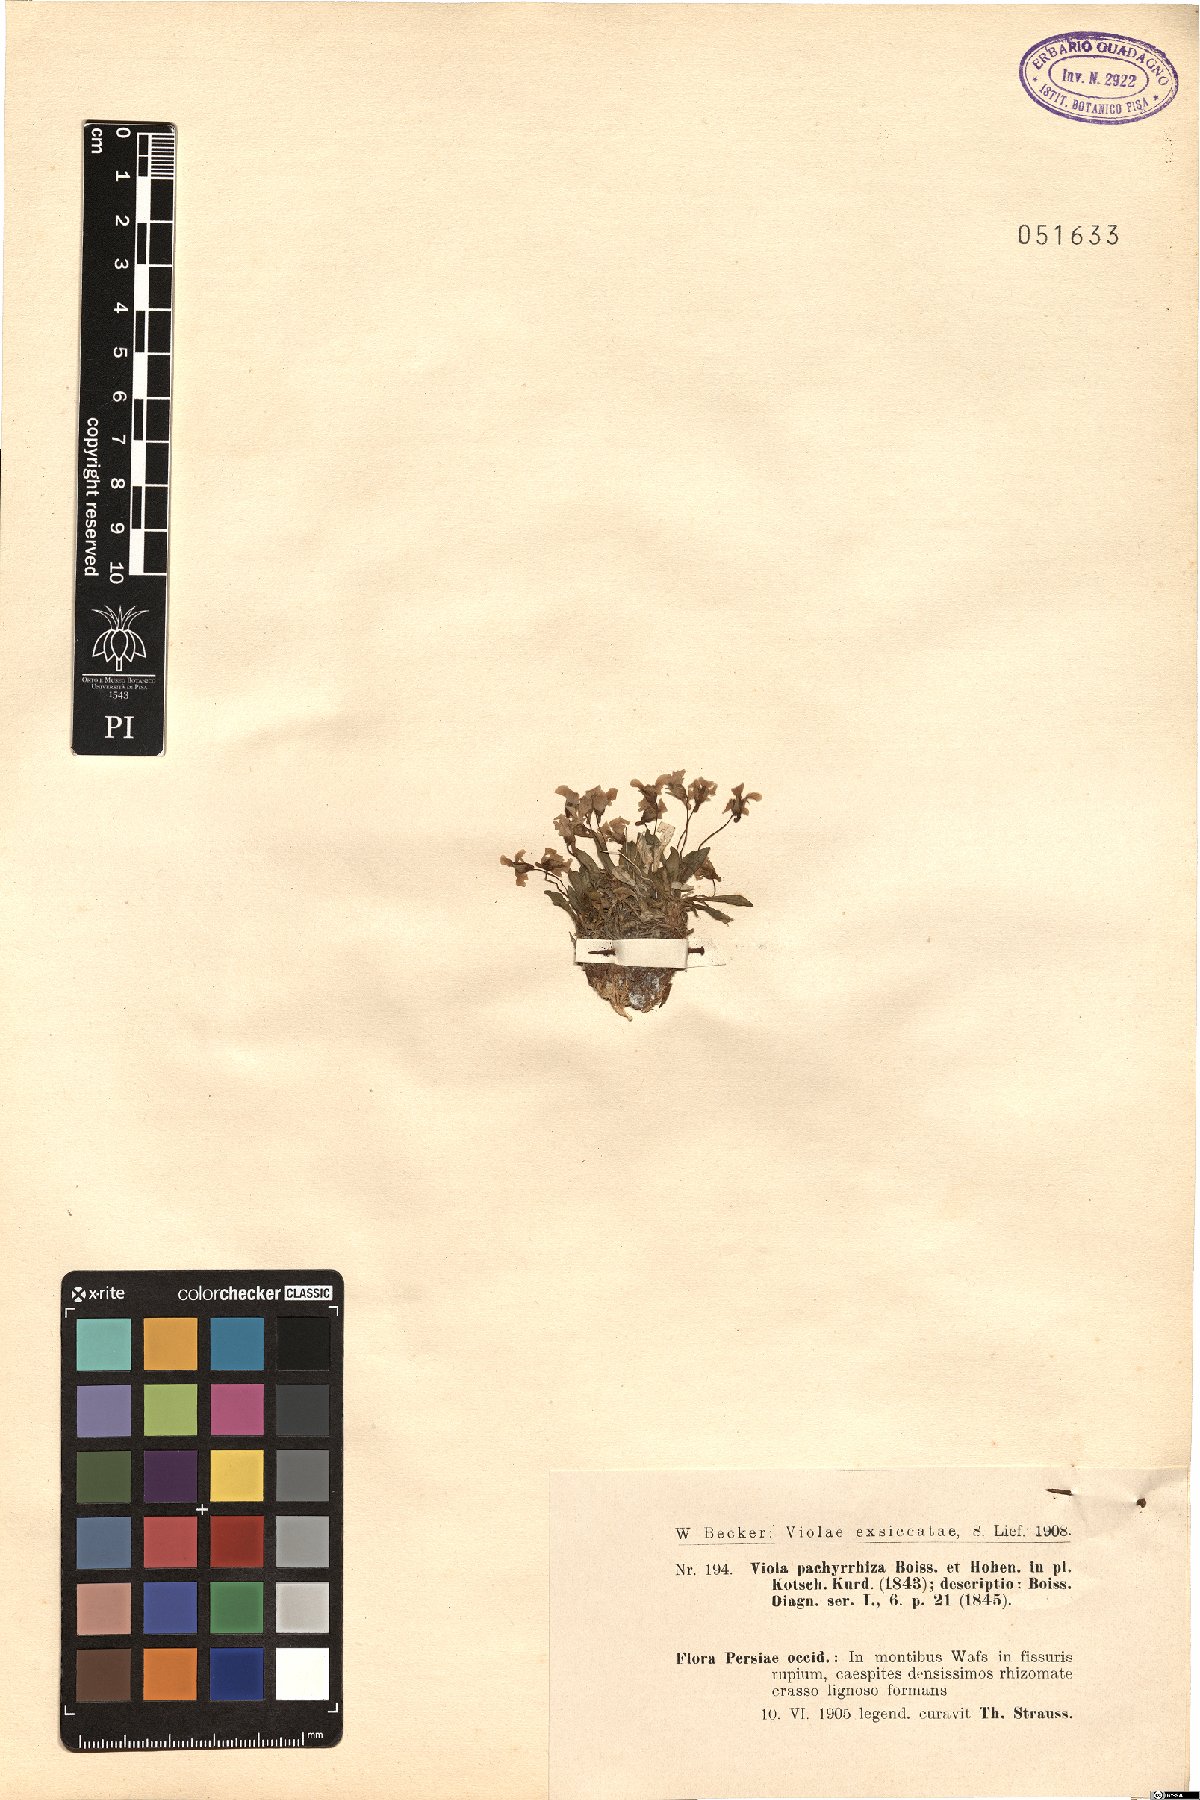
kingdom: Plantae
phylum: Tracheophyta
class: Magnoliopsida
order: Malpighiales
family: Violaceae
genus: Viola
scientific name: Viola pachyrrhiza
